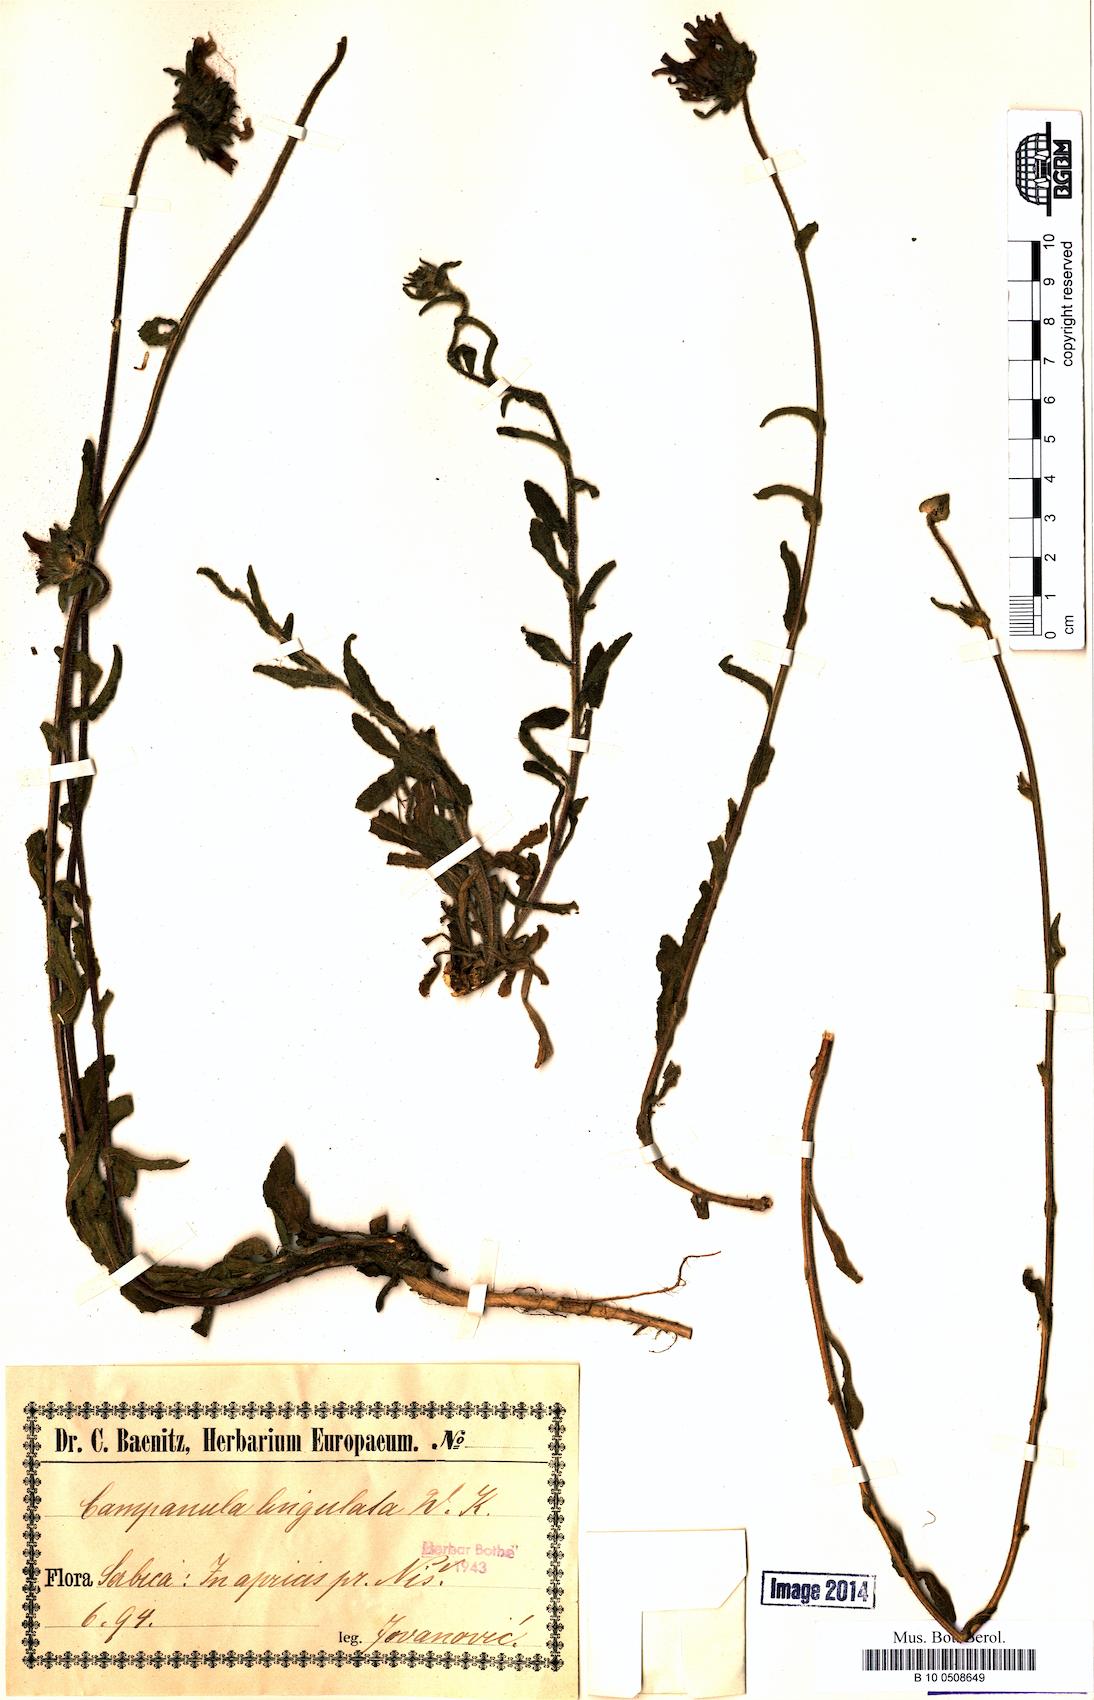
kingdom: Plantae
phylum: Tracheophyta
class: Magnoliopsida
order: Asterales
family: Campanulaceae
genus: Campanula
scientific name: Campanula lingulata
